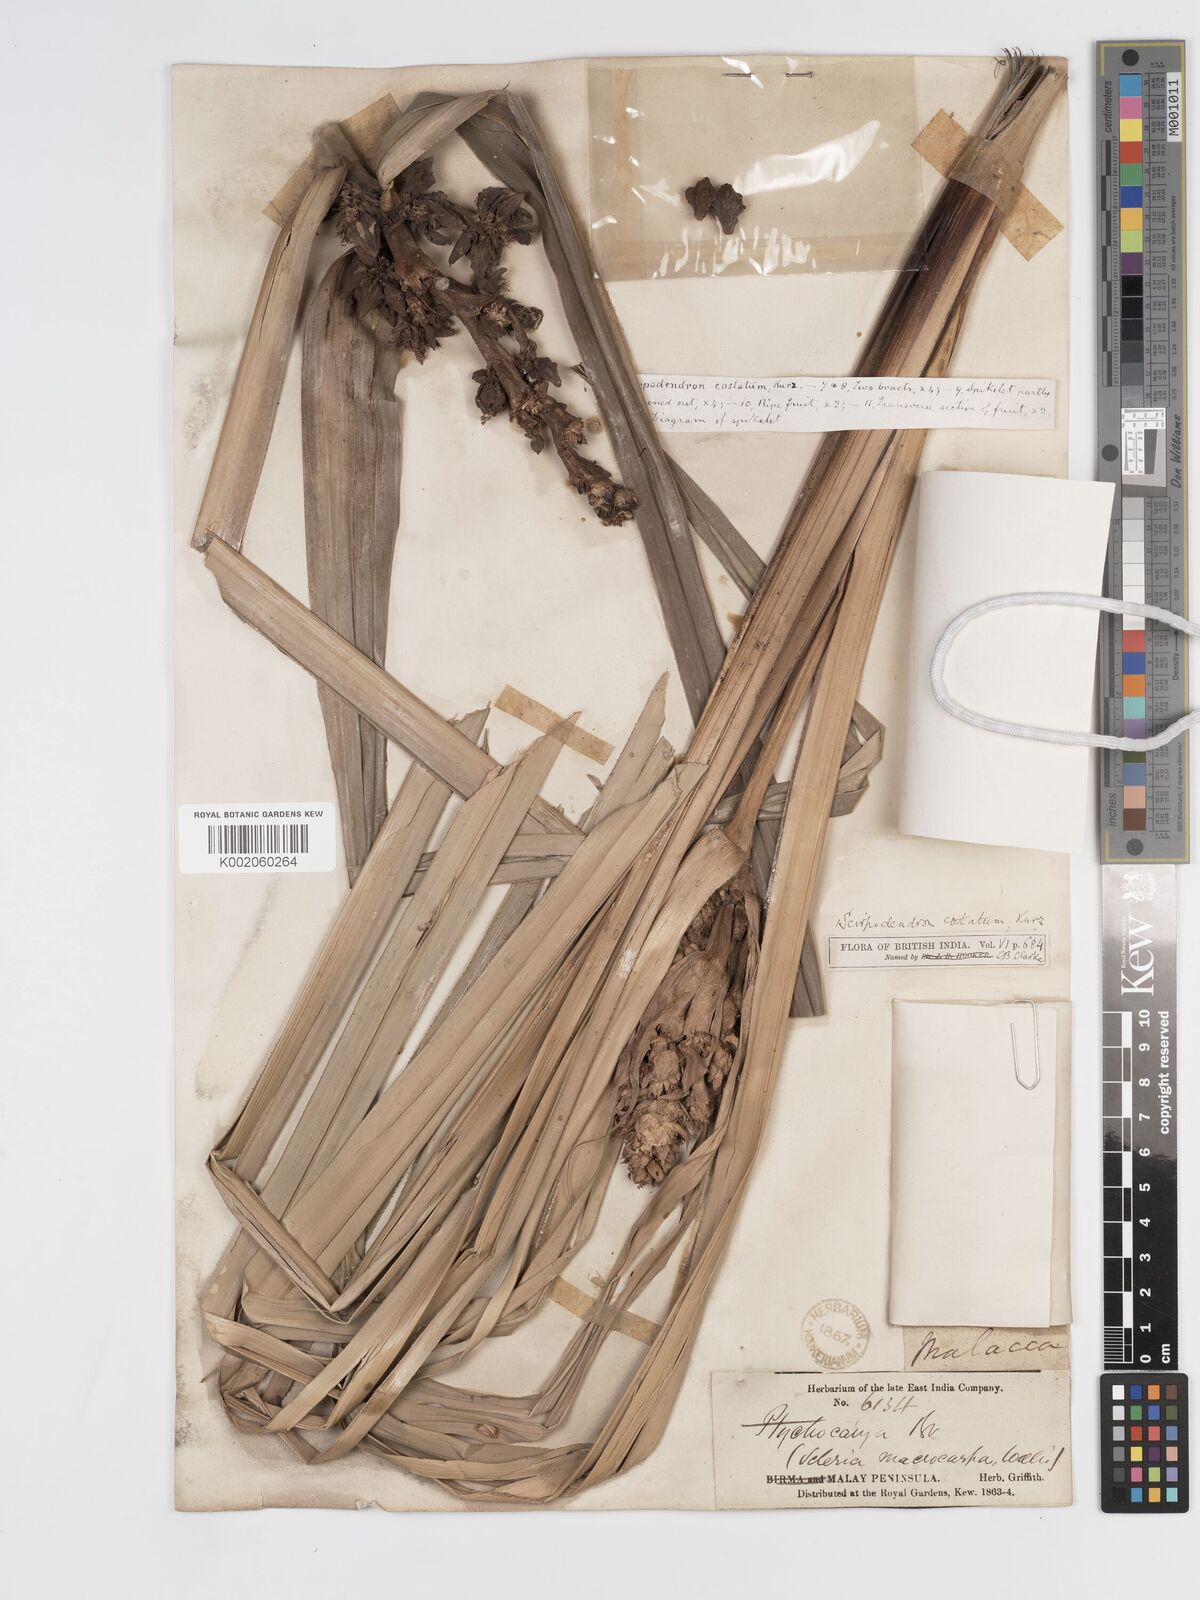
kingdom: Plantae
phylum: Tracheophyta
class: Liliopsida
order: Poales
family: Cyperaceae
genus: Scirpodendron
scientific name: Scirpodendron ghaeri
